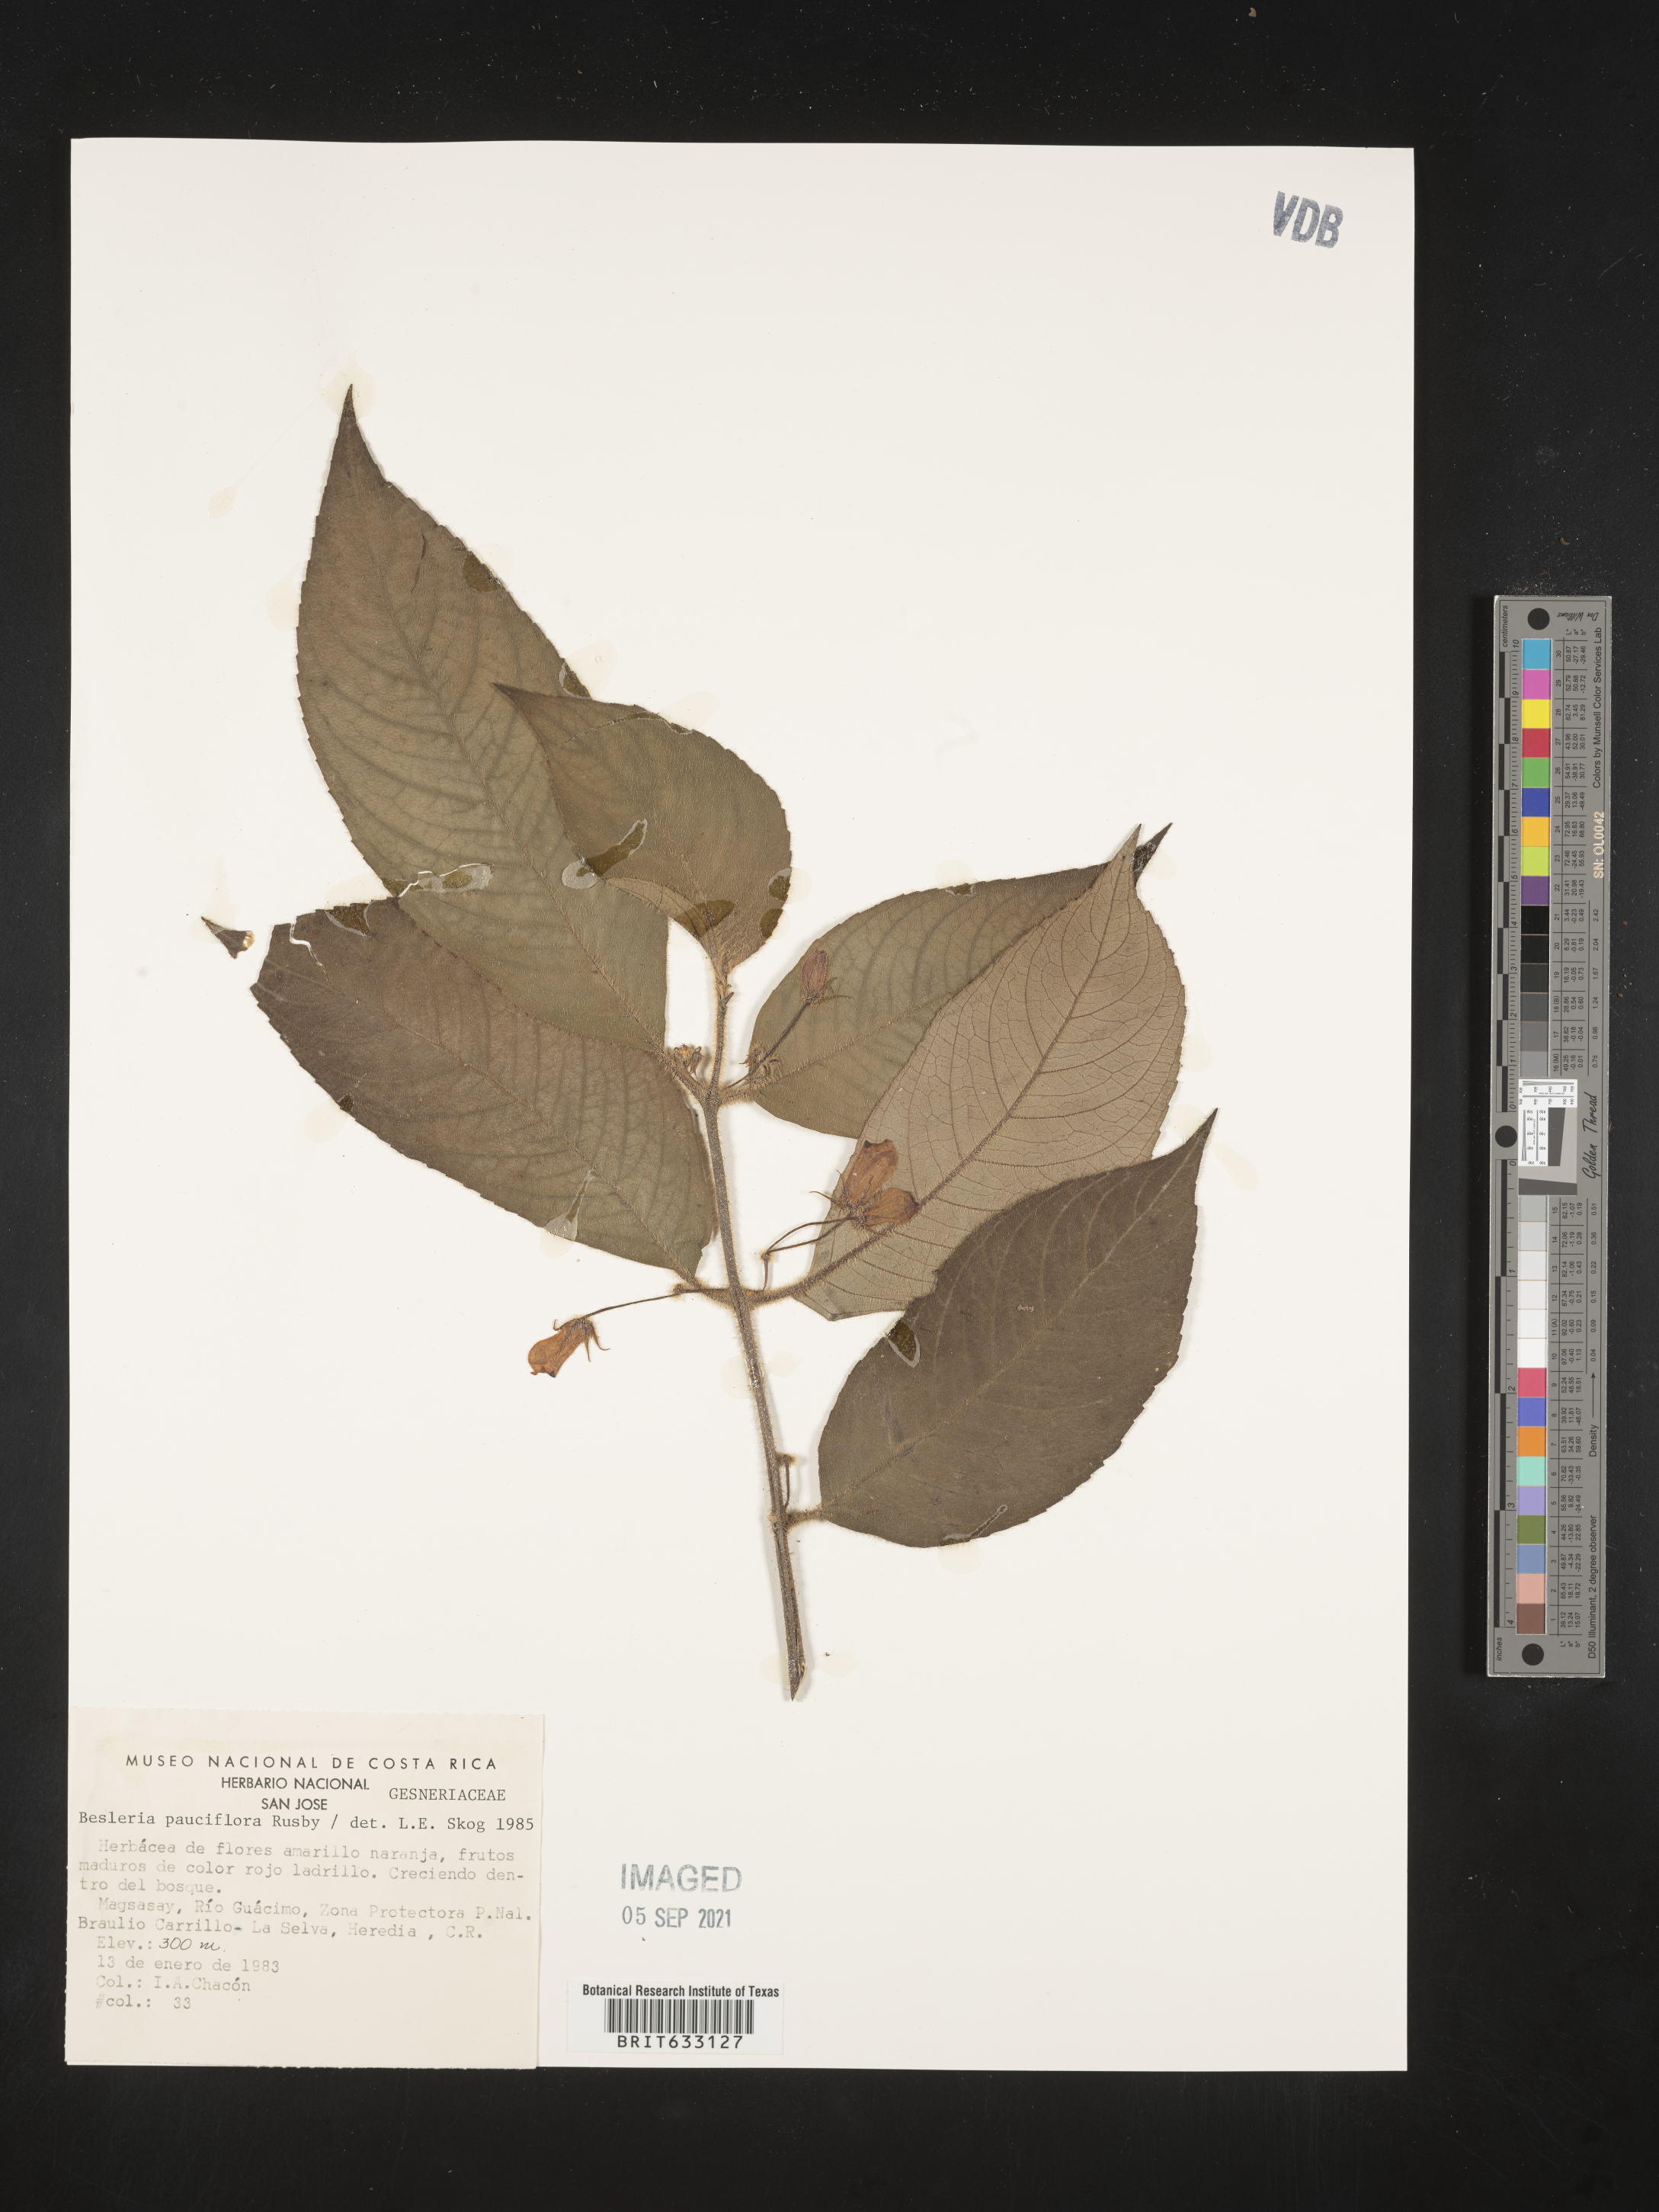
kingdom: Plantae
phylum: Tracheophyta
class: Magnoliopsida
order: Lamiales
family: Gesneriaceae
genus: Besleria
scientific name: Besleria
